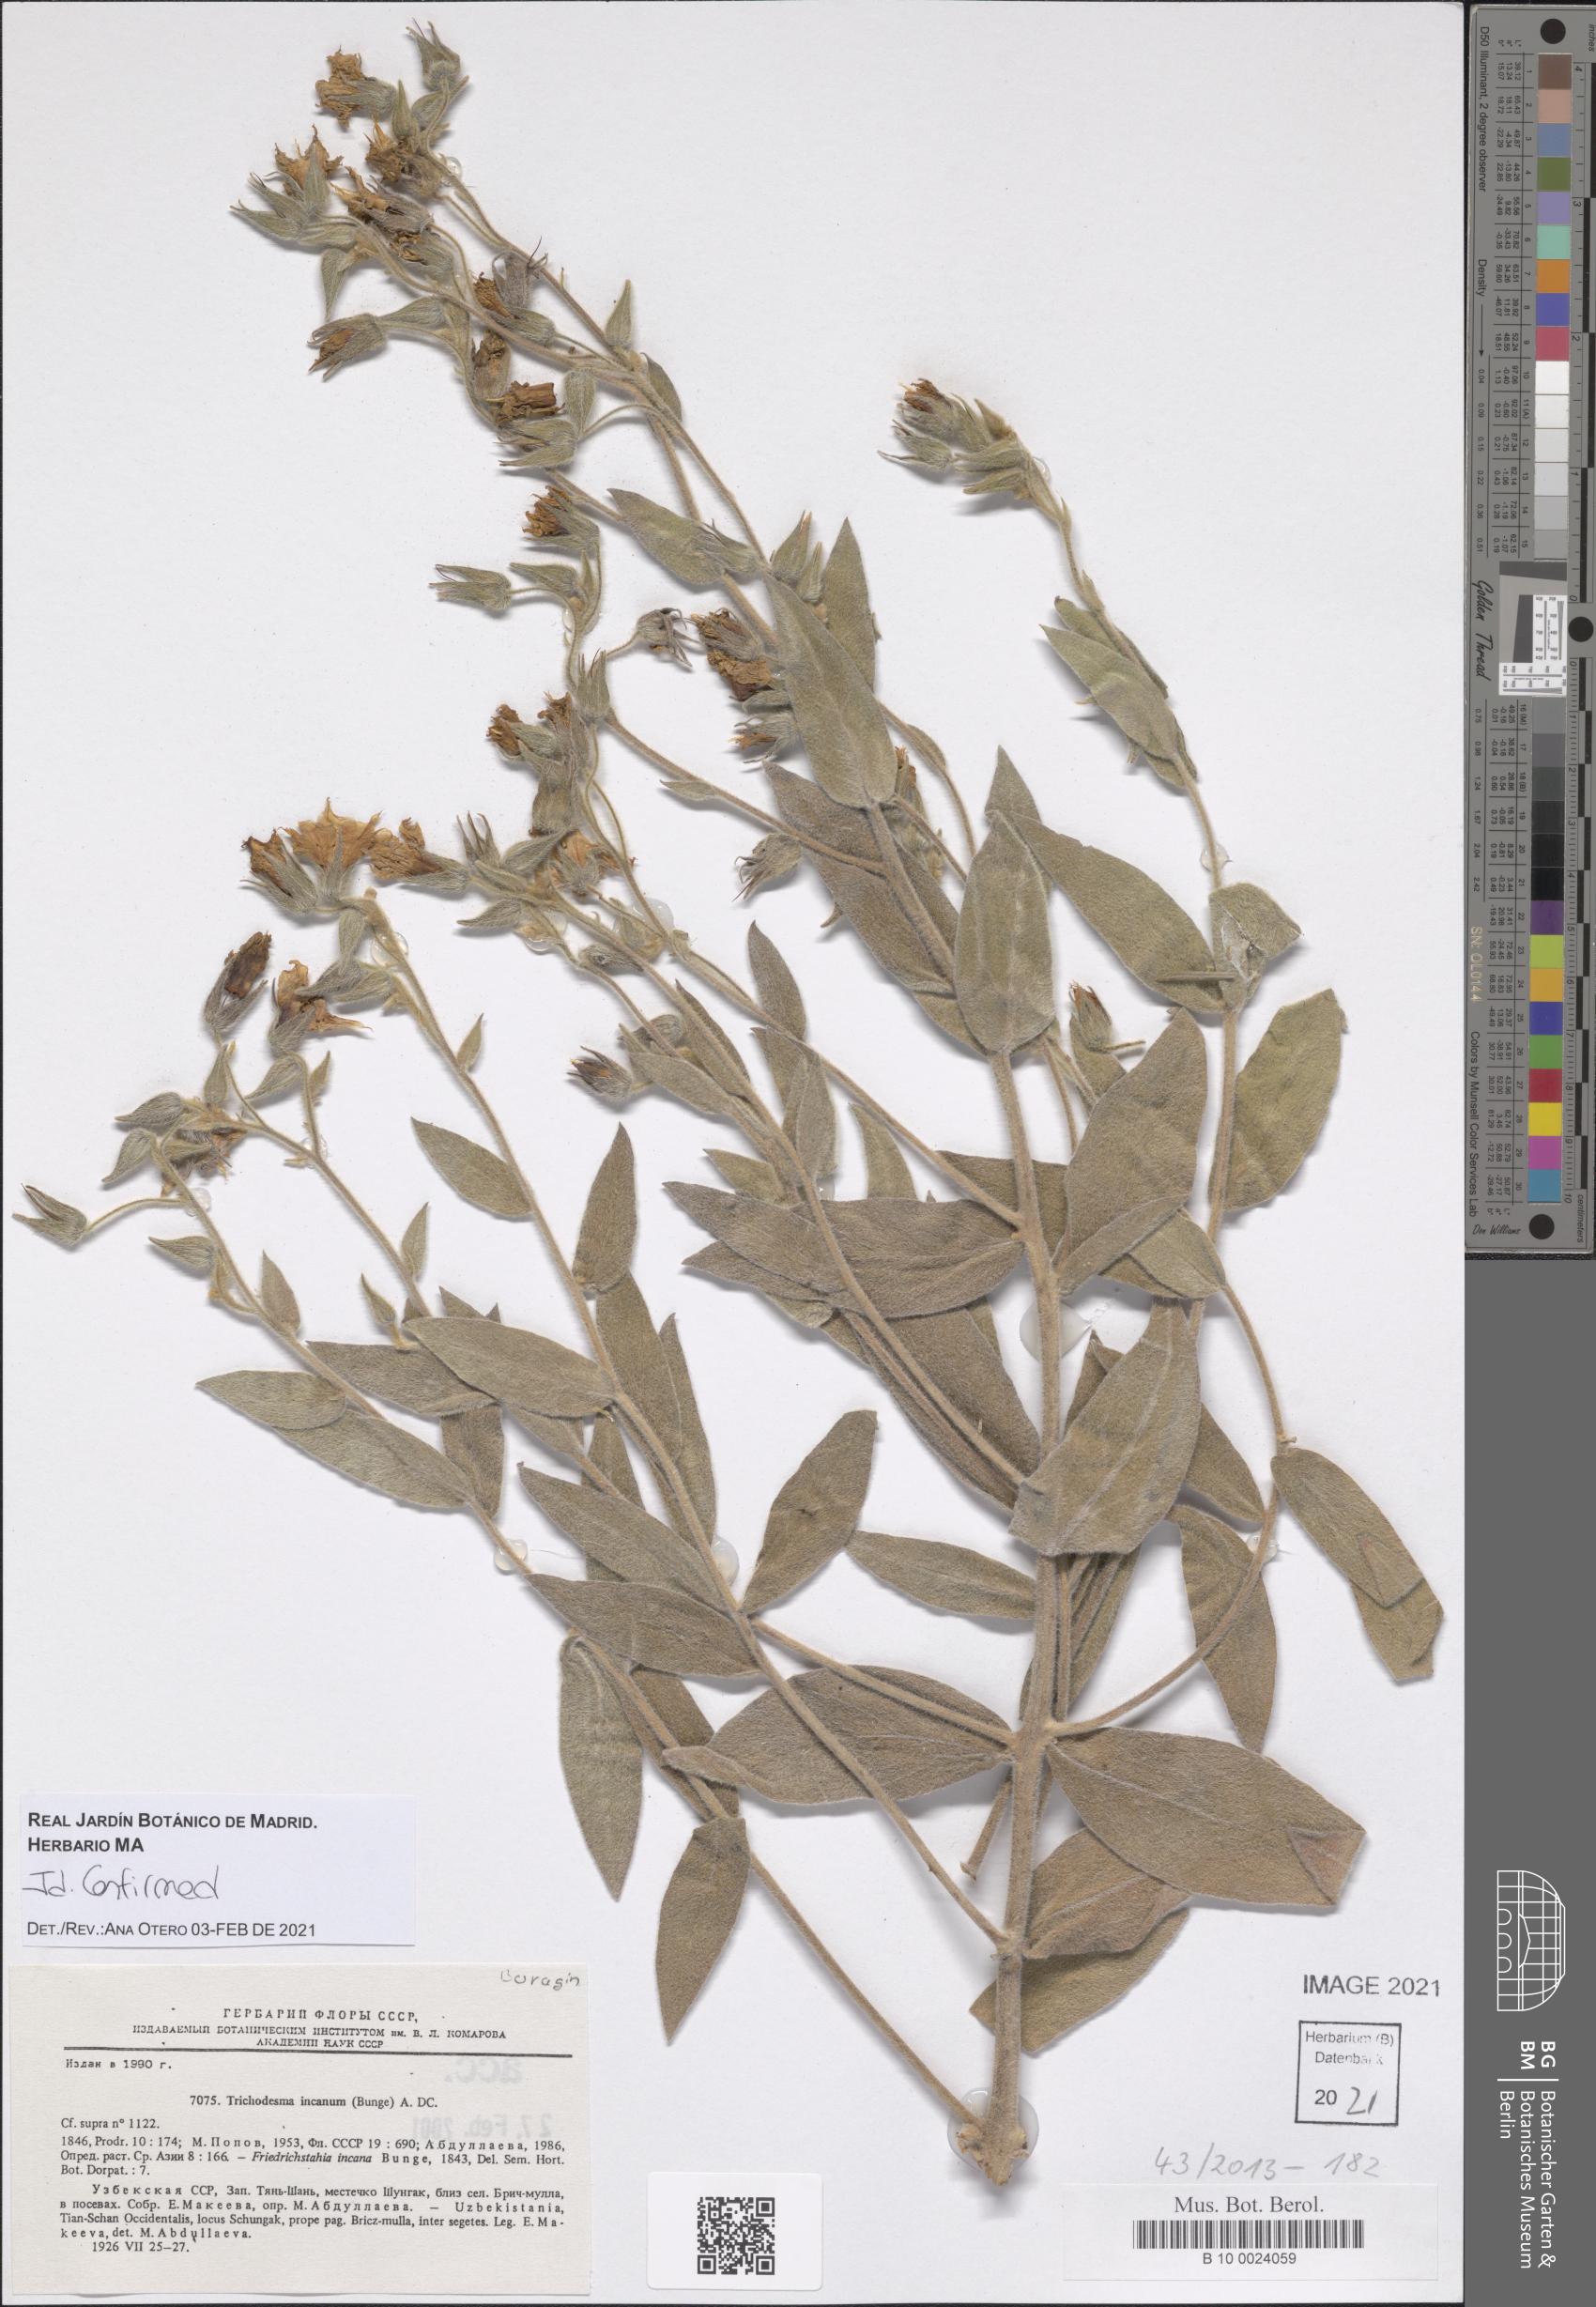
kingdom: Plantae
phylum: Tracheophyta
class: Magnoliopsida
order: Boraginales
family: Boraginaceae
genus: Trichodesma
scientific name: Trichodesma incanum
